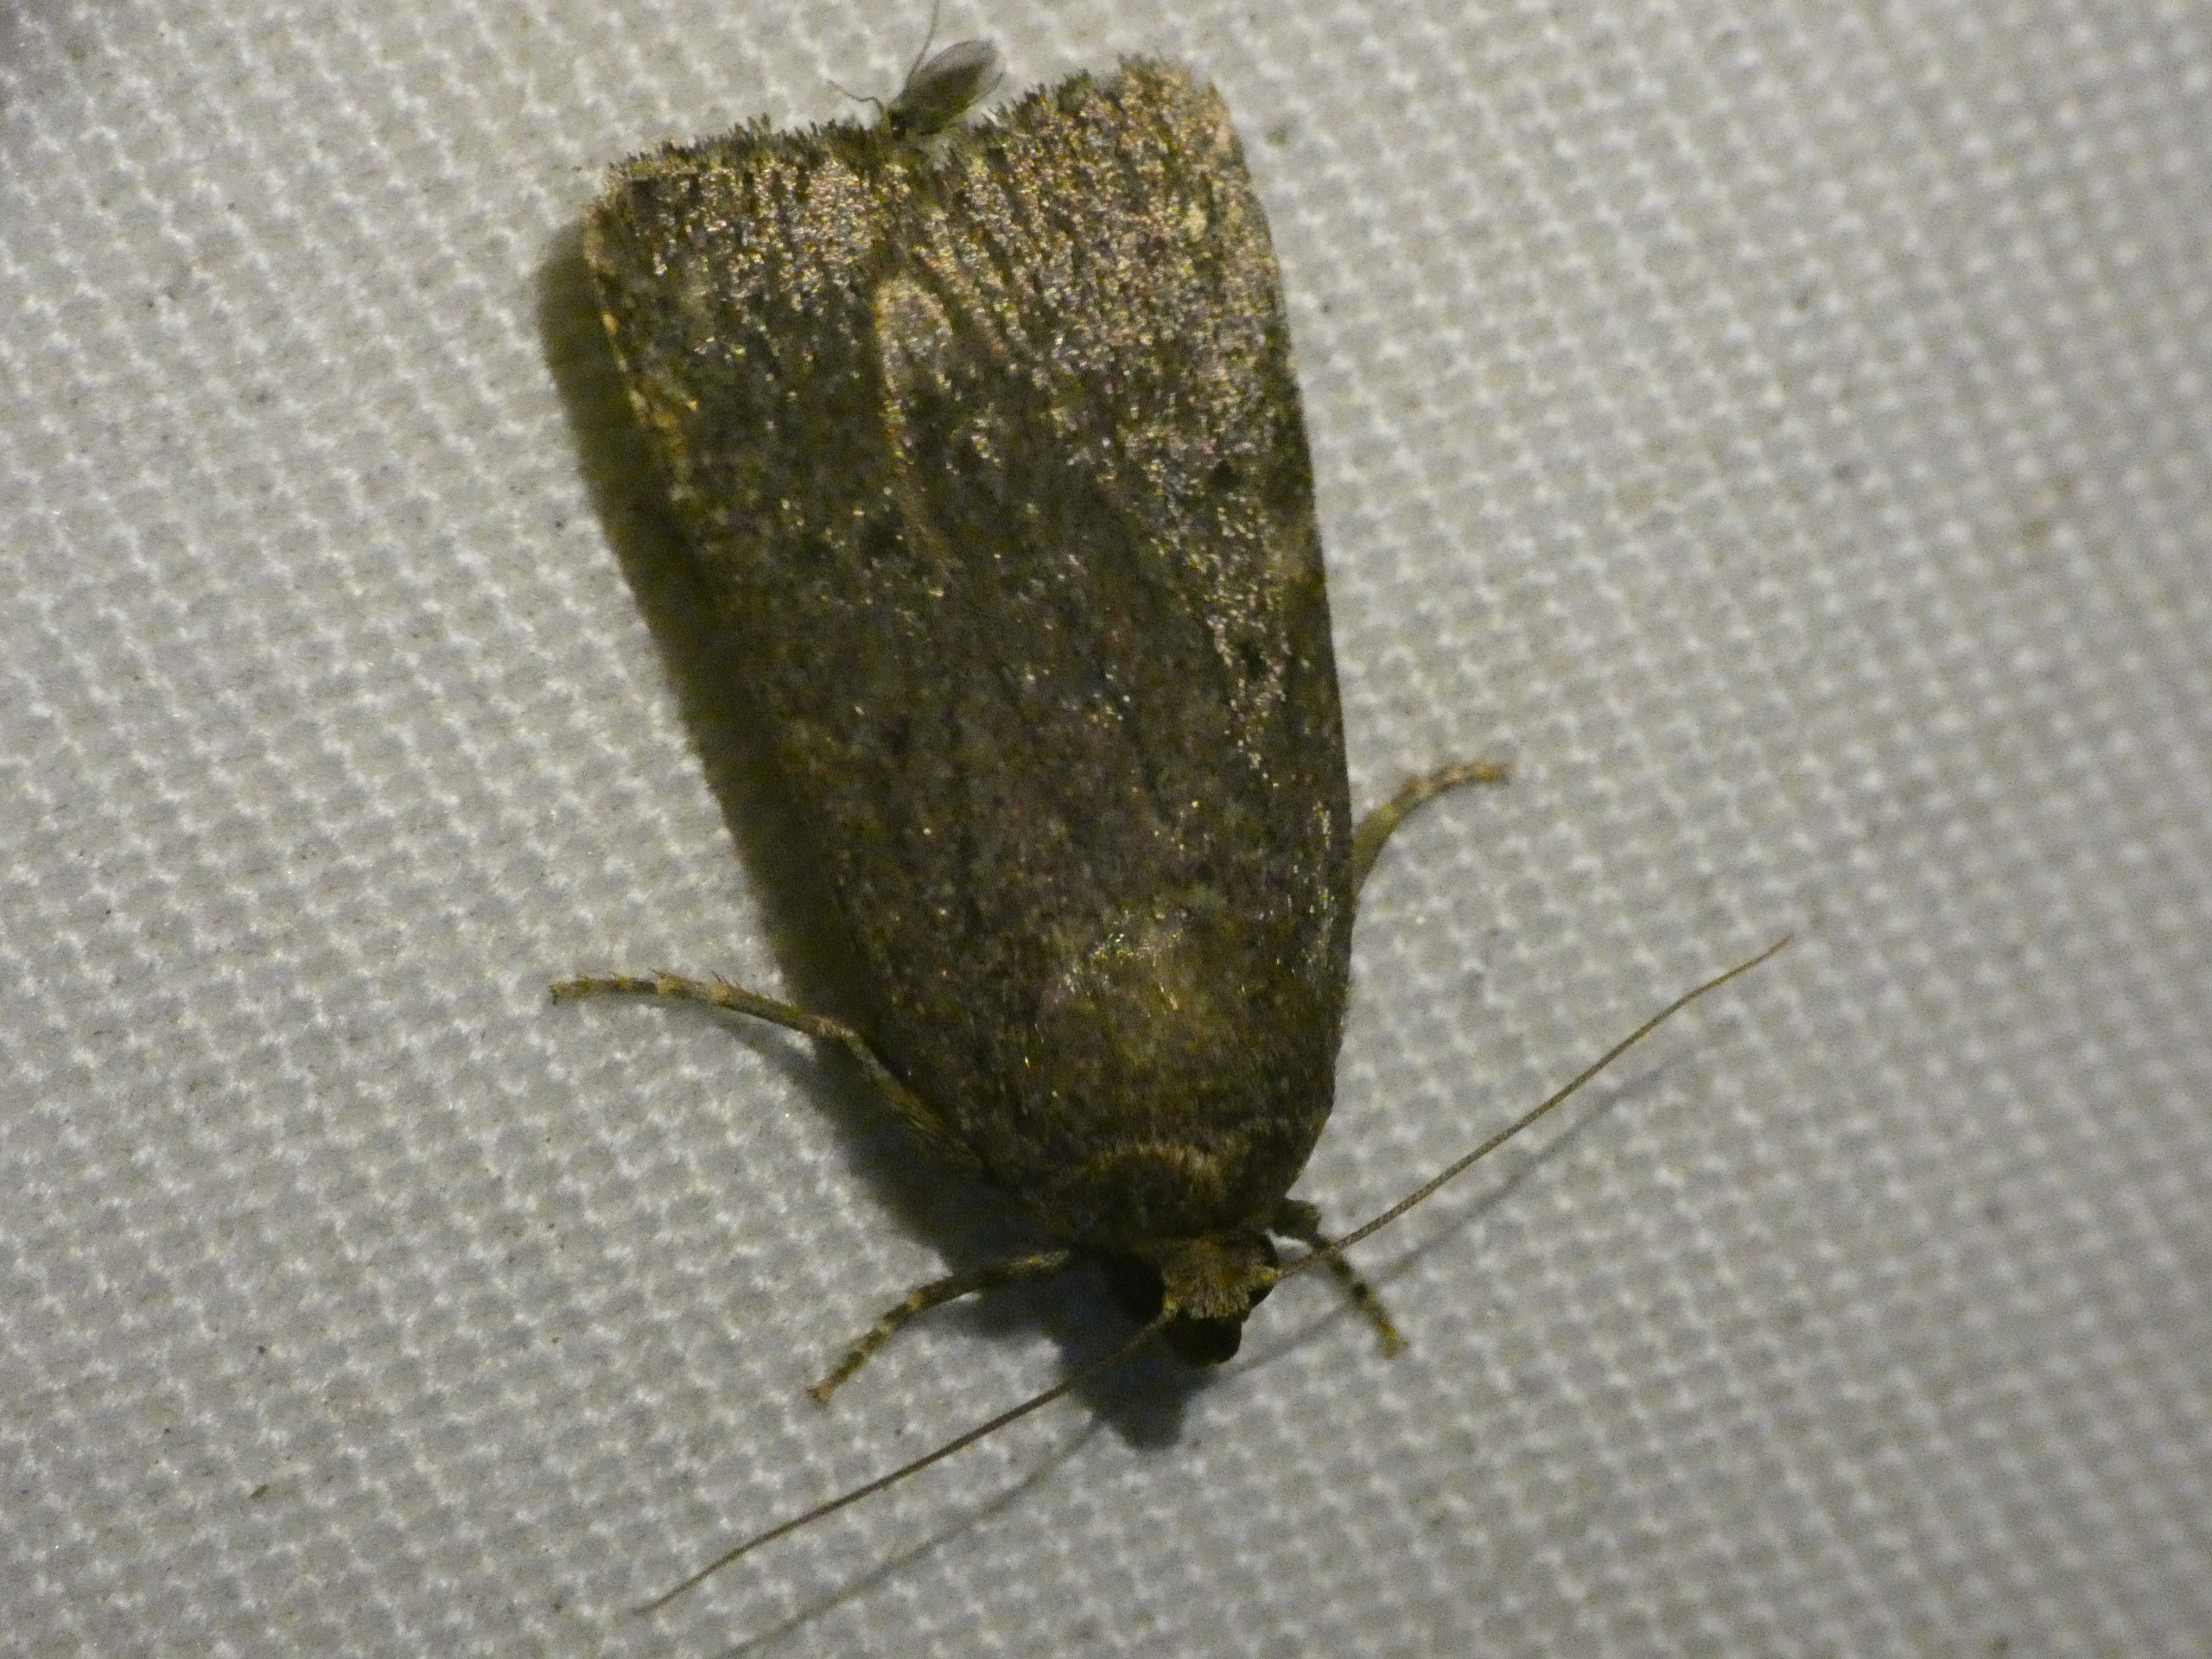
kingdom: Animalia
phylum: Arthropoda
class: Insecta
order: Lepidoptera
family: Noctuidae
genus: Amphipyra
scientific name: Amphipyra tragopoginis
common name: Blyantsugle
